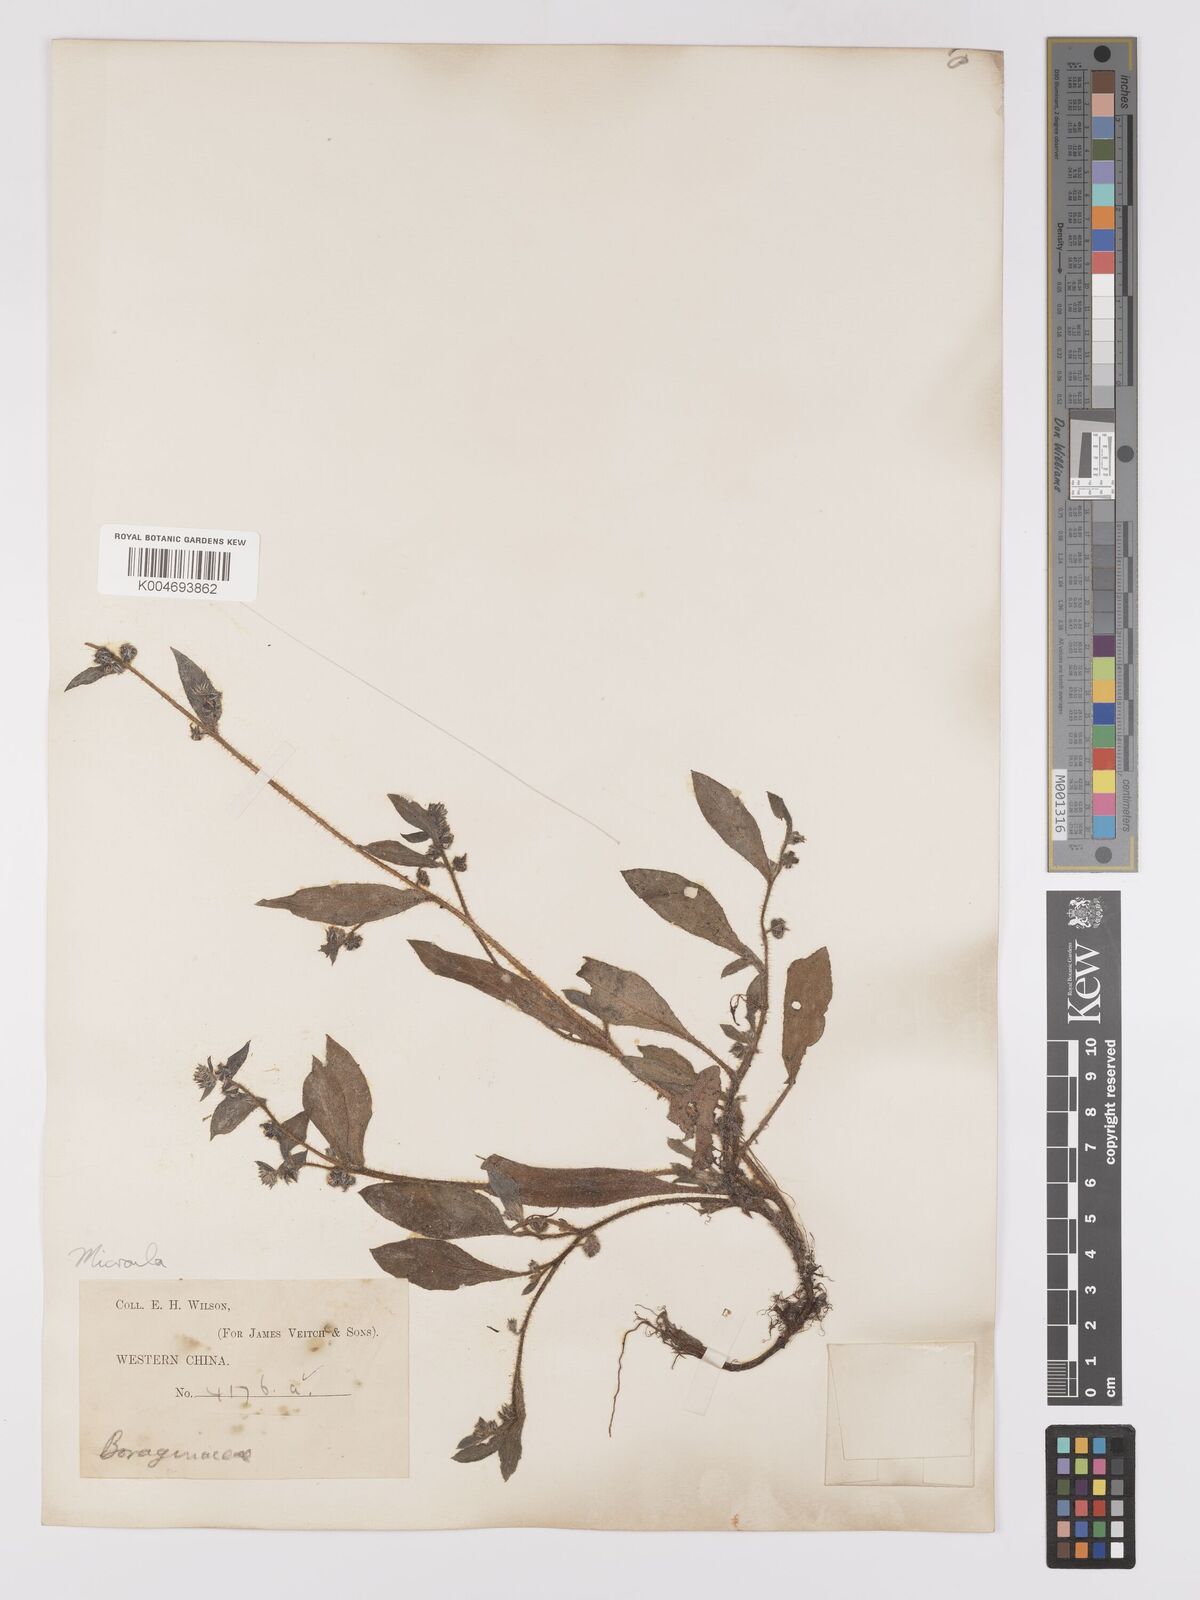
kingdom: Plantae
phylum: Tracheophyta
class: Magnoliopsida
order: Boraginales
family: Boraginaceae
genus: Microula
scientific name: Microula forrestii
